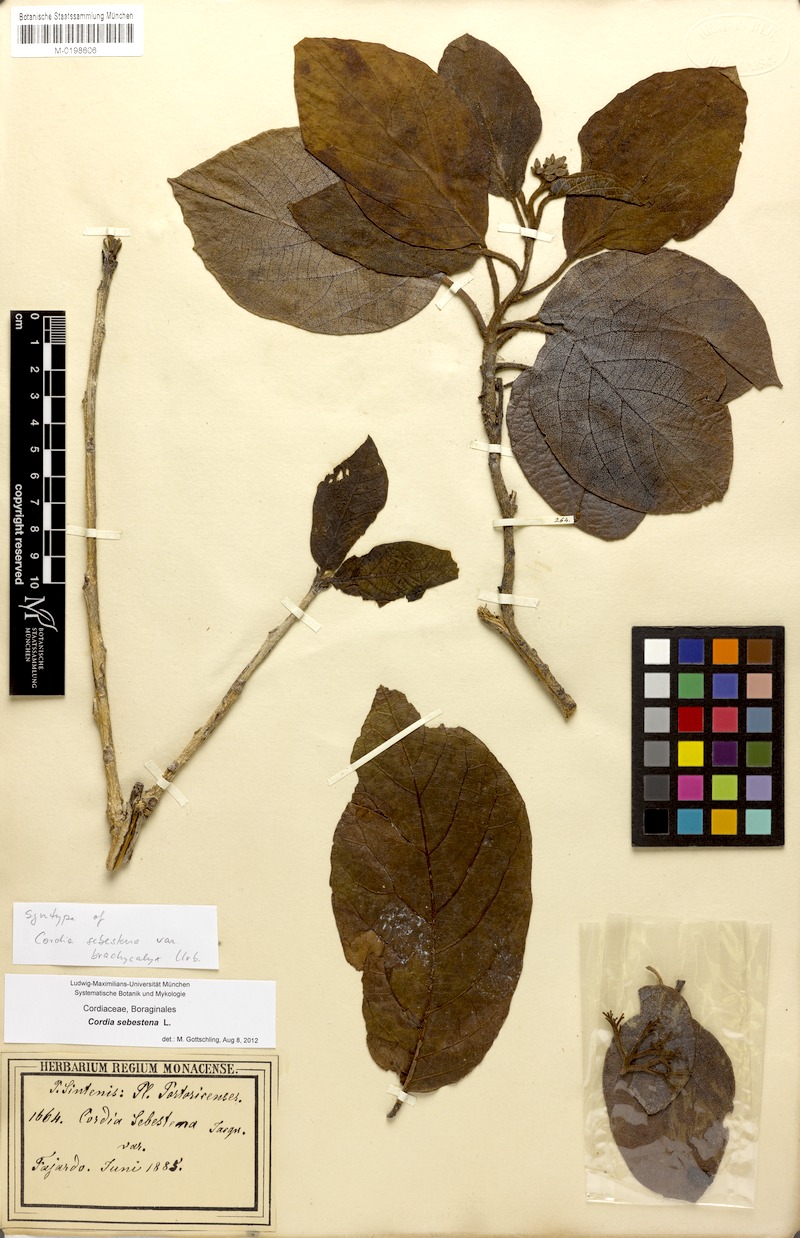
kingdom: Plantae
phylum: Tracheophyta
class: Magnoliopsida
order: Boraginales
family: Cordiaceae
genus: Cordia
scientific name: Cordia sebestena
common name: Largeleaf geigertree
